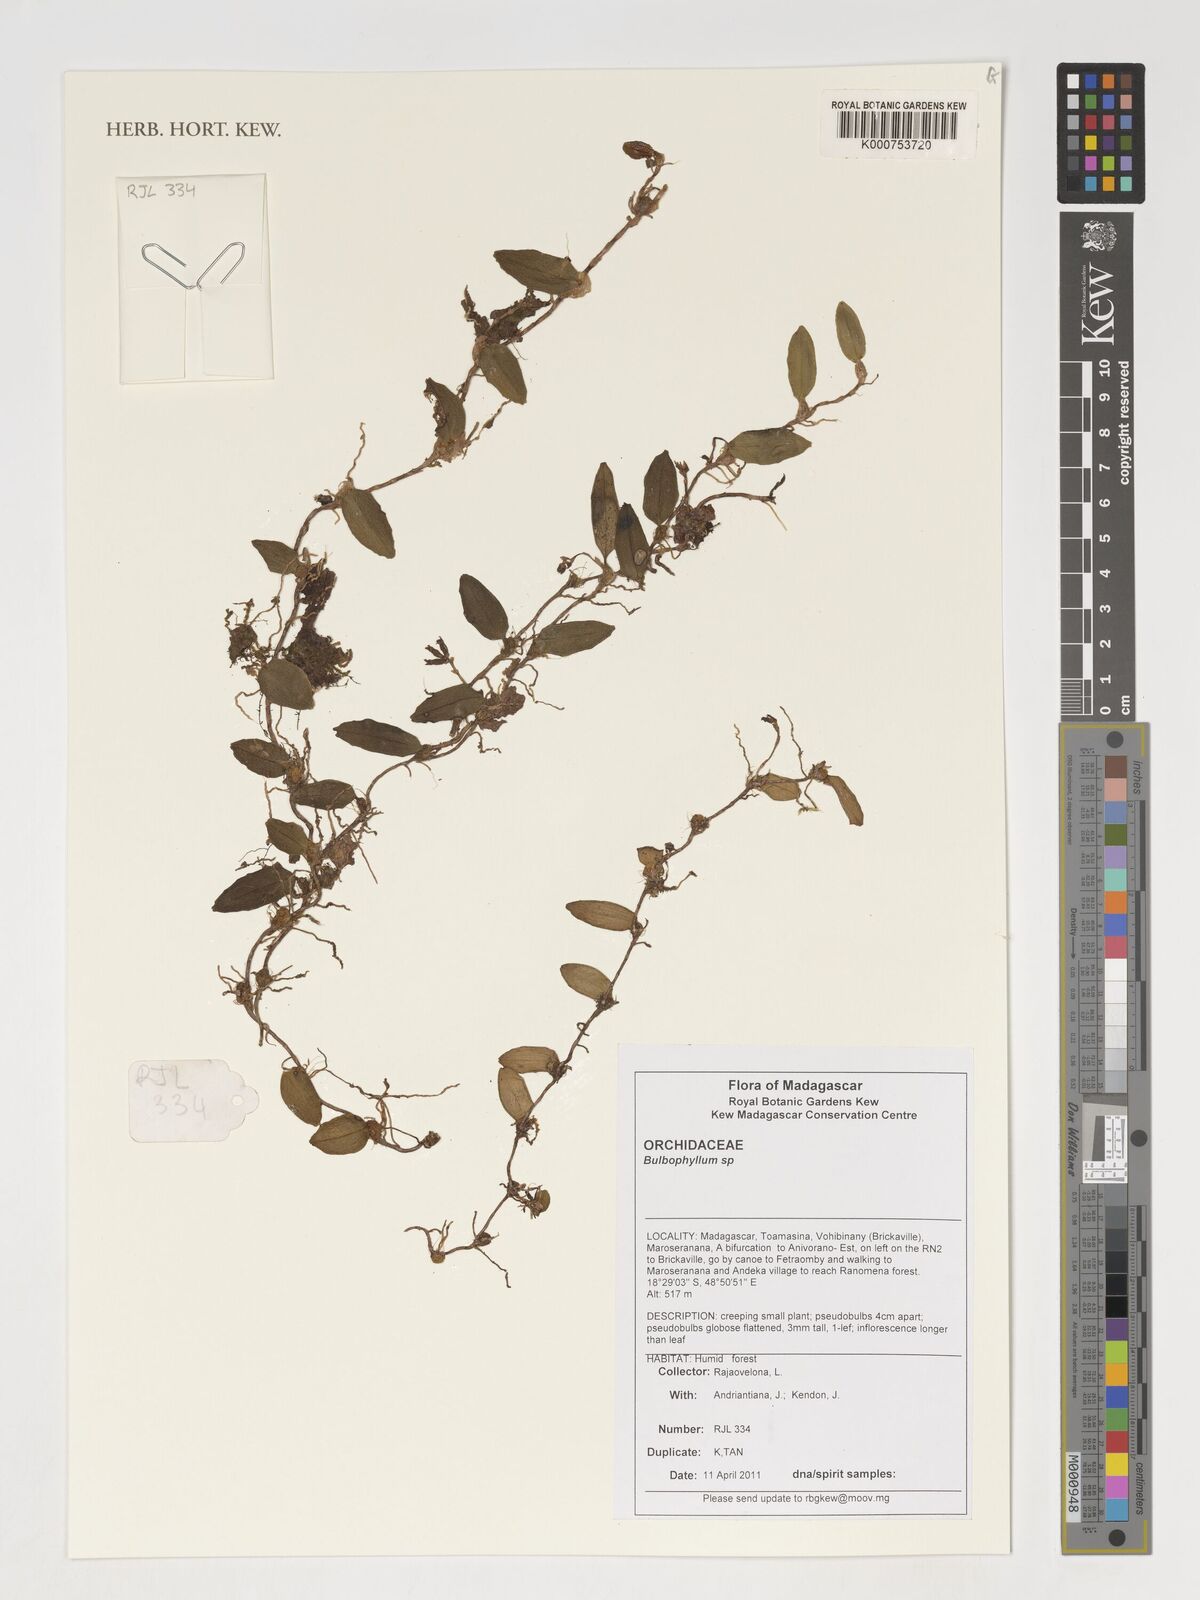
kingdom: Plantae
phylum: Tracheophyta
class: Liliopsida
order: Asparagales
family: Orchidaceae
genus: Bulbophyllum
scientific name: Bulbophyllum
